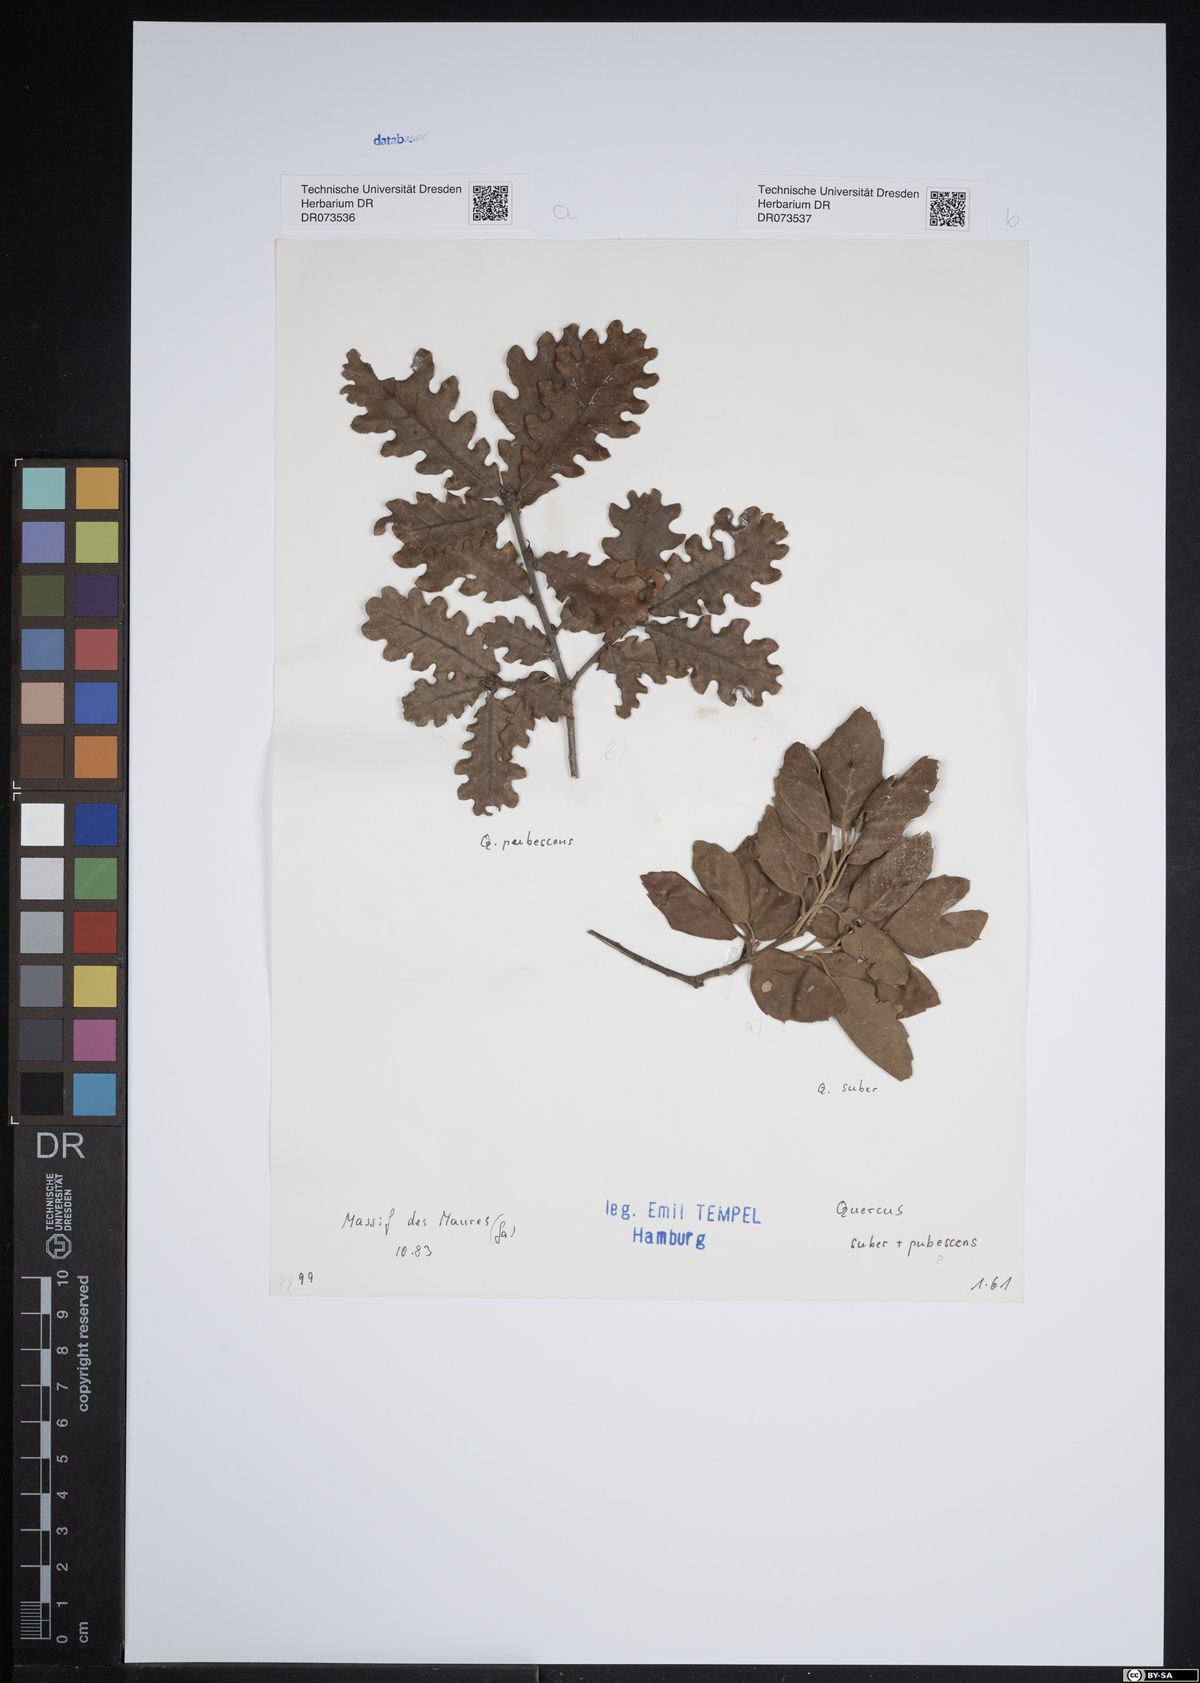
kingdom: Plantae
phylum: Tracheophyta
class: Magnoliopsida
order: Fagales
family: Fagaceae
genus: Quercus
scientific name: Quercus pubescens
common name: Downy oak
